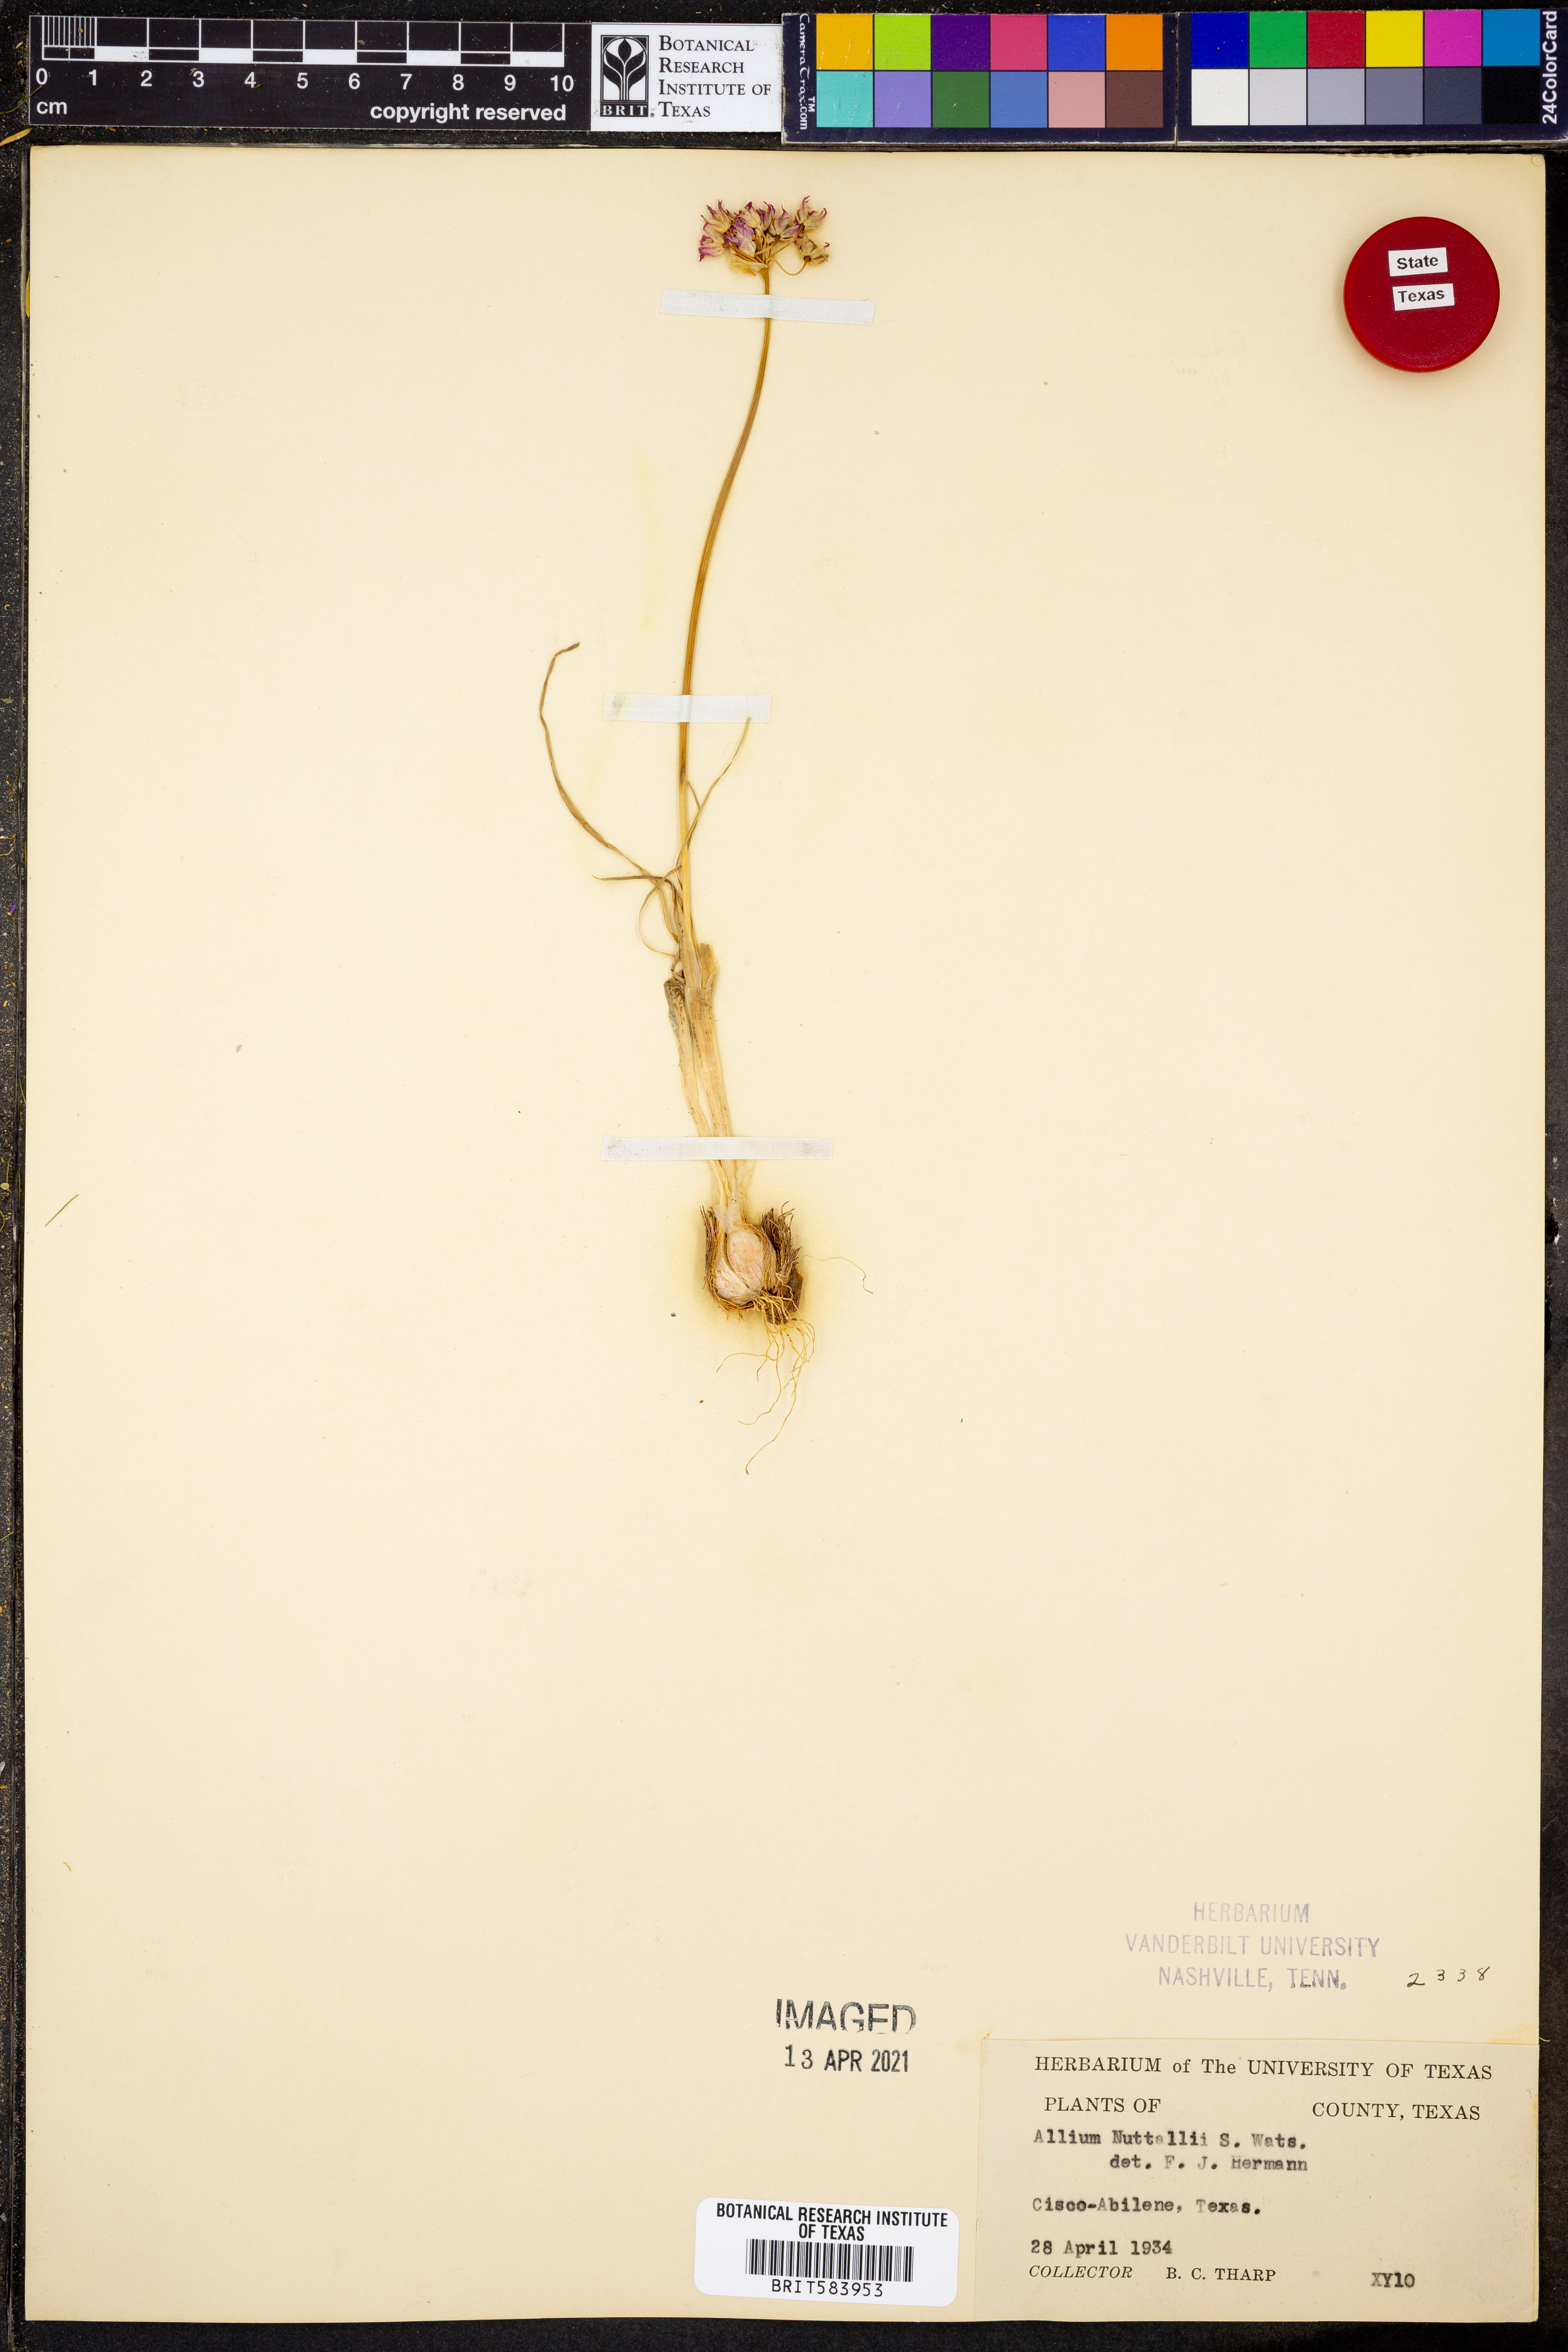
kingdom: Plantae
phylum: Tracheophyta
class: Liliopsida
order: Asparagales
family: Amaryllidaceae
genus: Allium
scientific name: Allium drummondii
